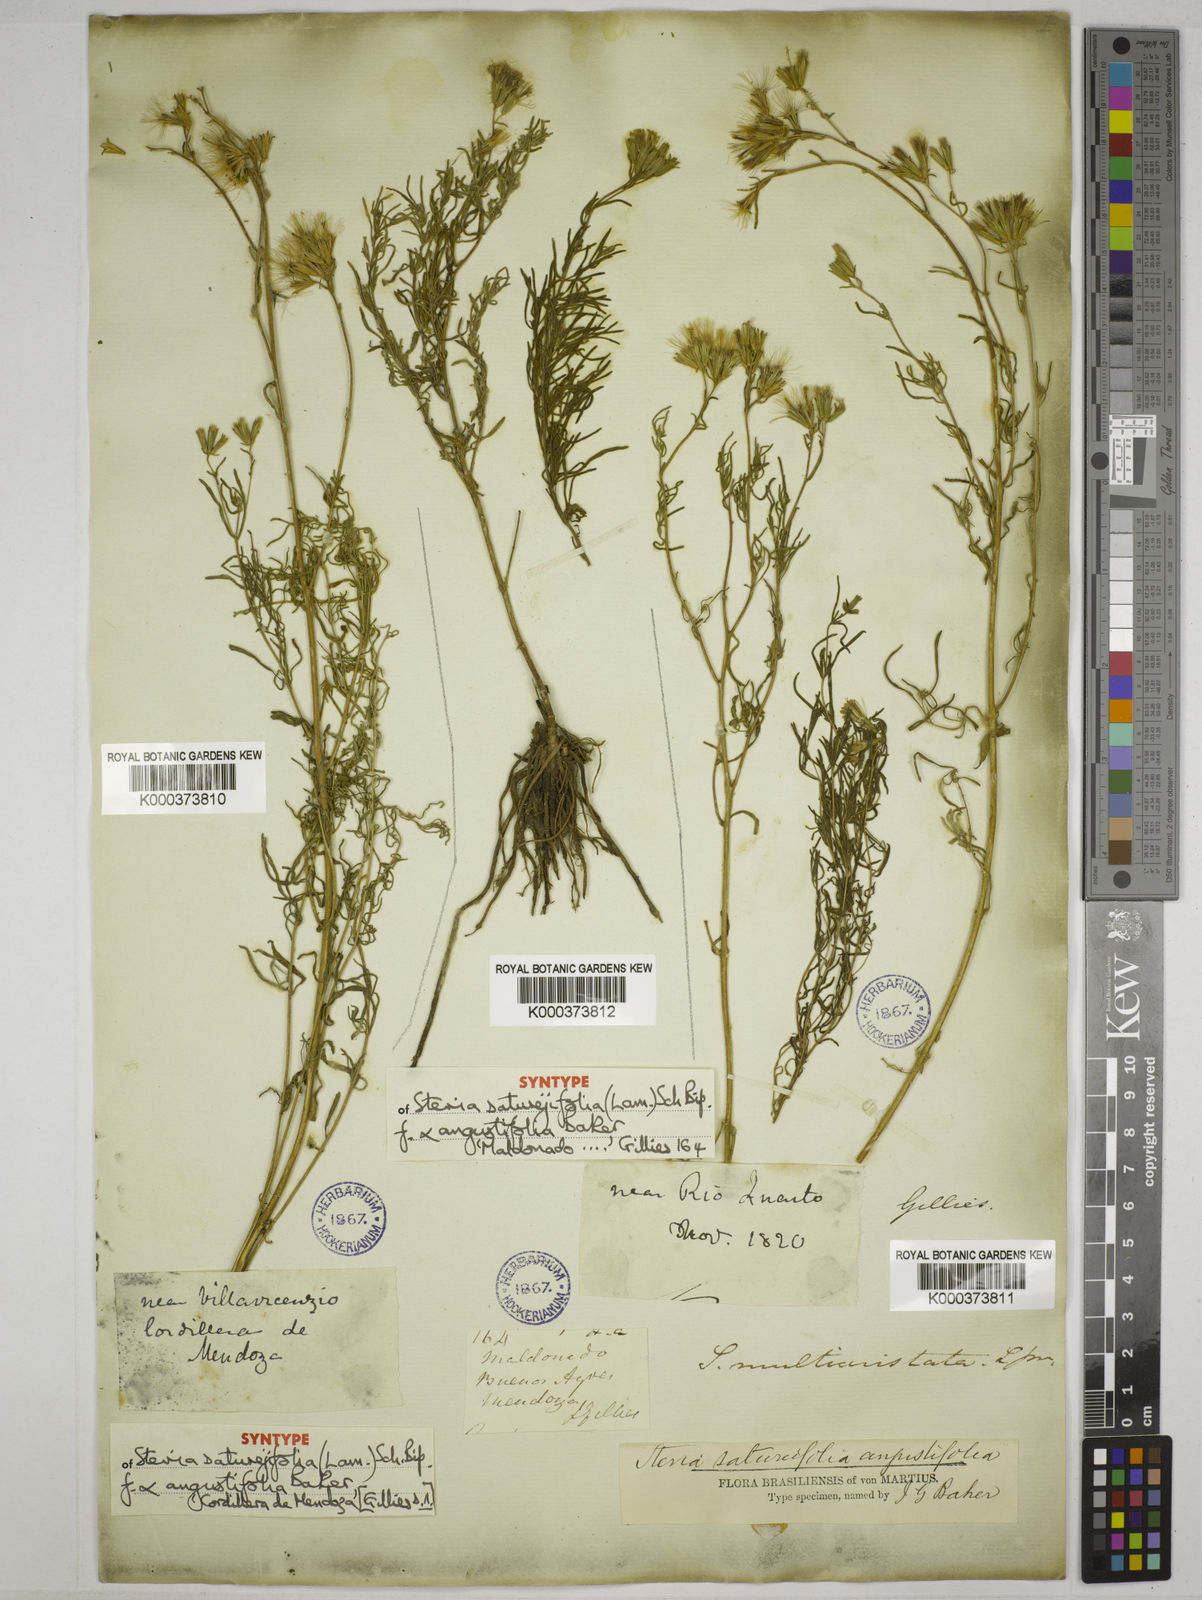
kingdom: Plantae
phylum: Tracheophyta
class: Magnoliopsida
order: Asterales
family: Asteraceae
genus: Stevia
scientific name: Stevia satureifolia
